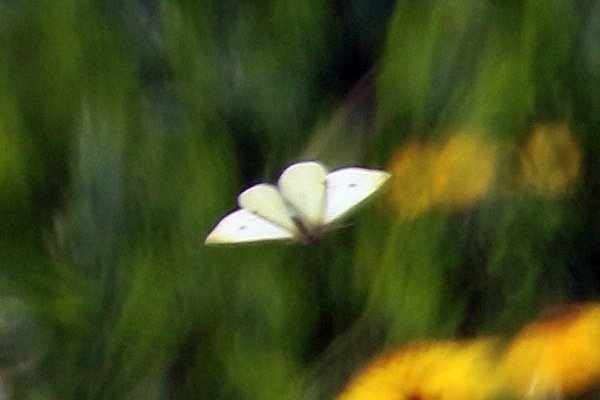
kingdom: Animalia
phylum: Arthropoda
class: Insecta
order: Lepidoptera
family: Pieridae
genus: Pieris
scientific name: Pieris rapae
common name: Cabbage White
